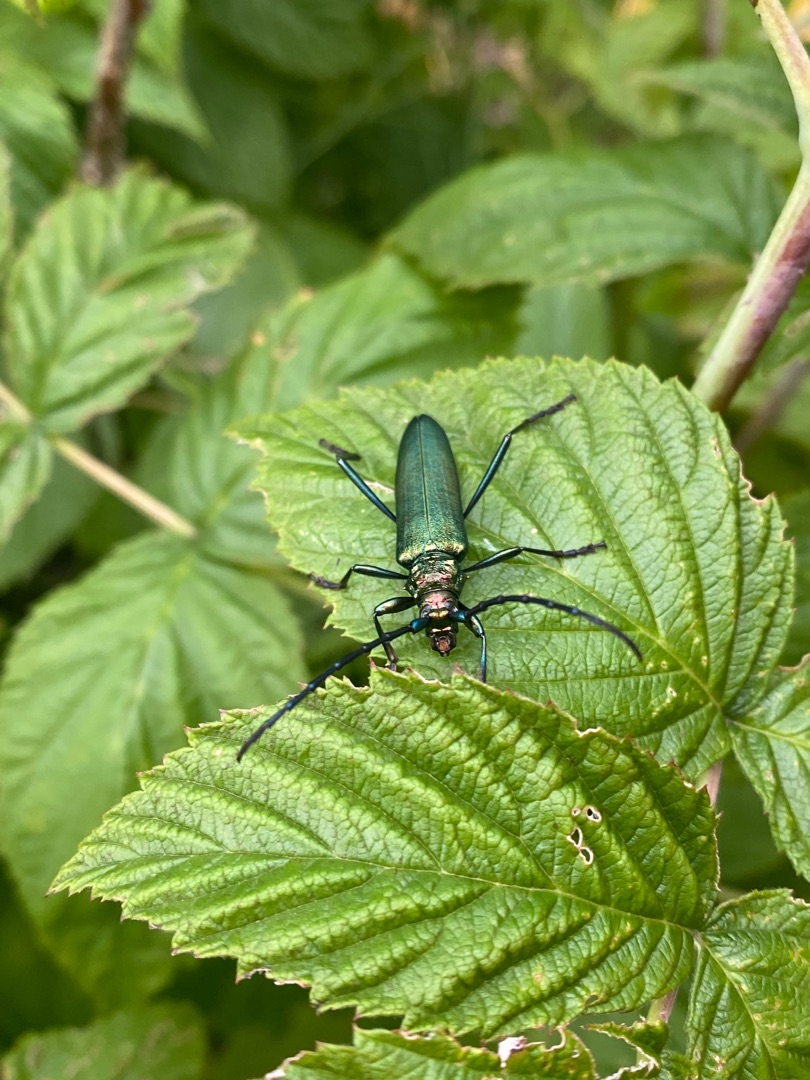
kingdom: Animalia
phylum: Arthropoda
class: Insecta
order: Coleoptera
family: Cerambycidae
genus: Aromia
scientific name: Aromia moschata
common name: Moskusbuk
